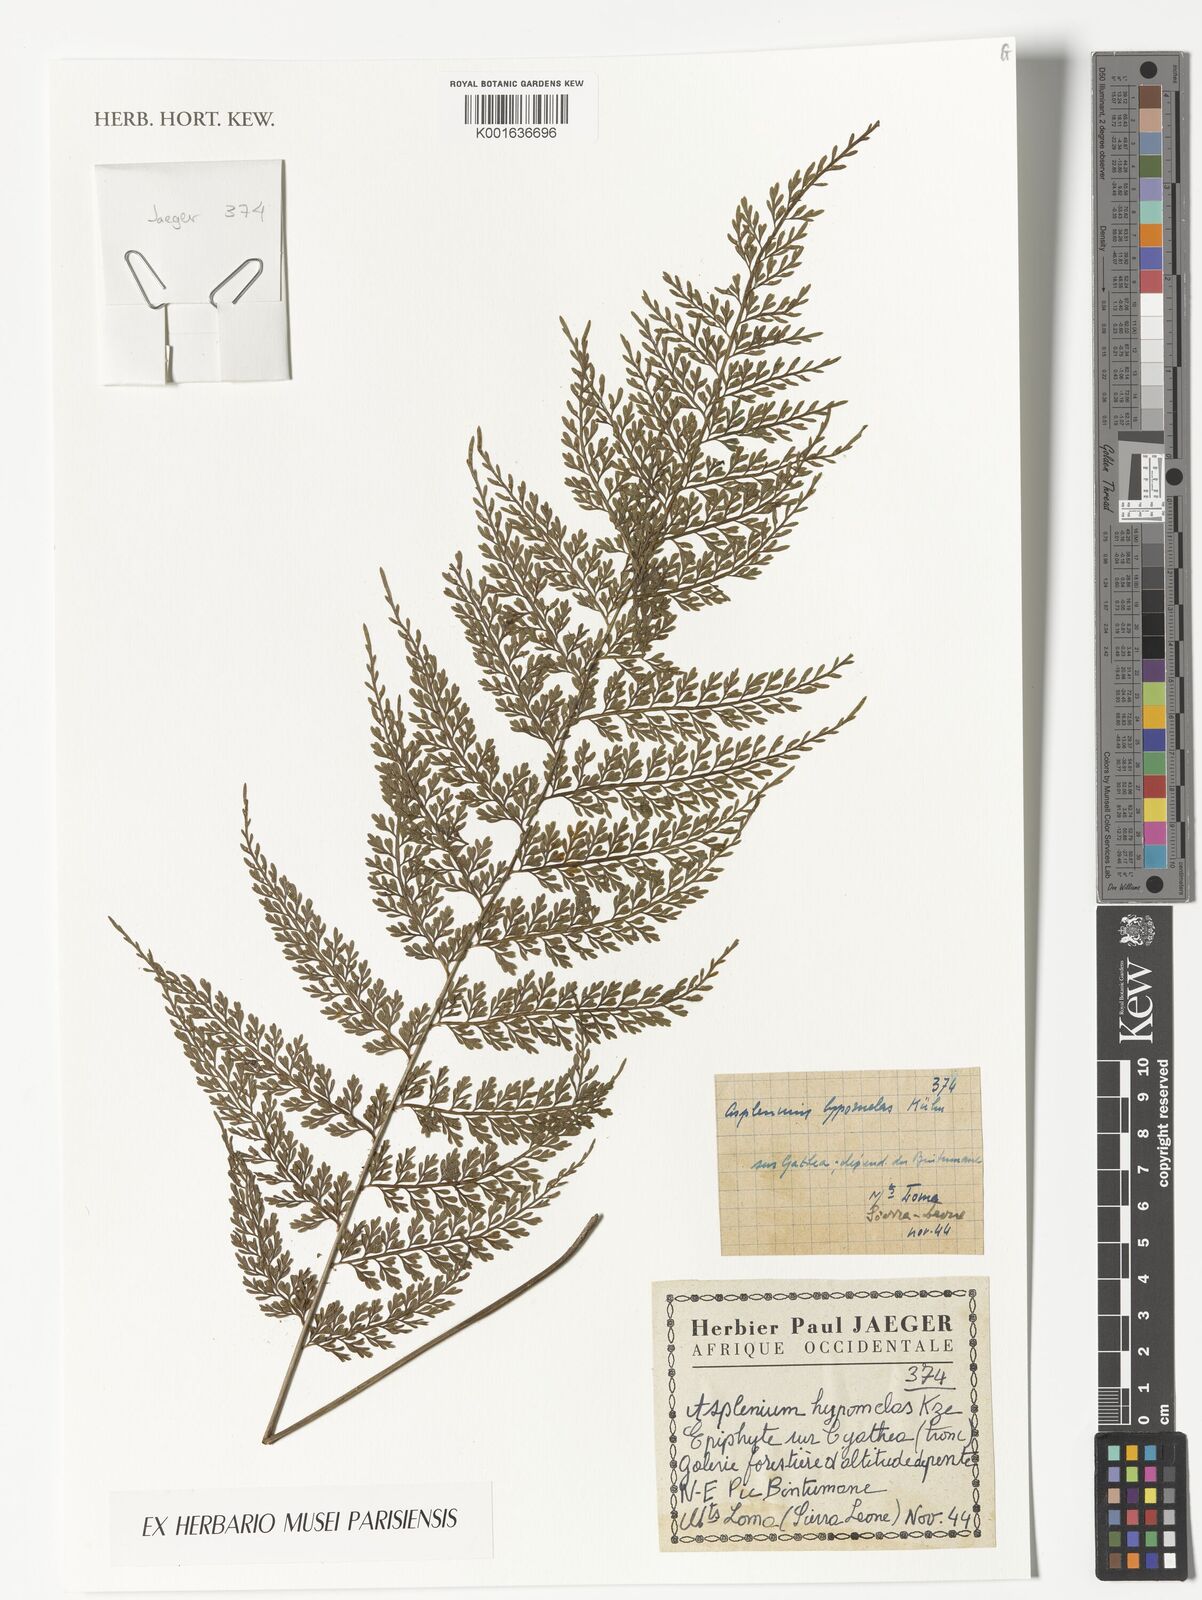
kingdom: Plantae
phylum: Tracheophyta
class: Polypodiopsida
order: Polypodiales
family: Aspleniaceae
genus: Asplenium
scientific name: Asplenium hypomelas
